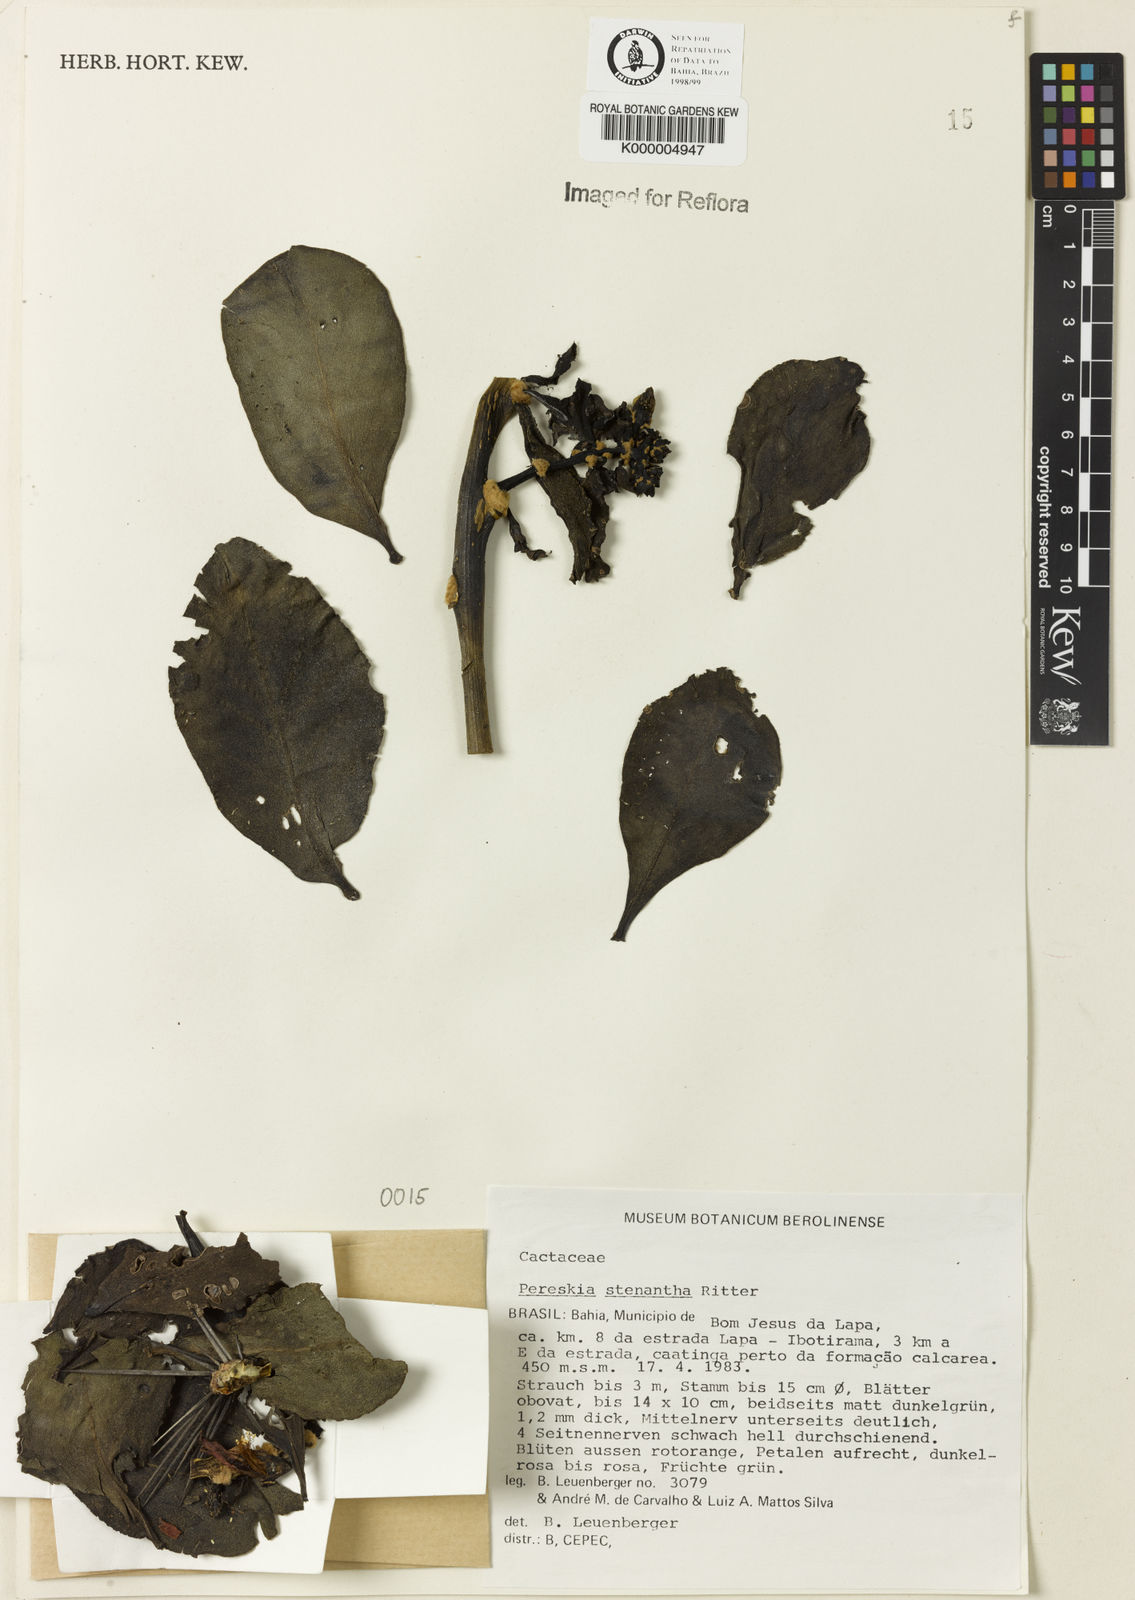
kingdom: Plantae
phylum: Tracheophyta
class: Magnoliopsida
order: Caryophyllales
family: Cactaceae
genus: Pereskia
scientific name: Pereskia stenantha
